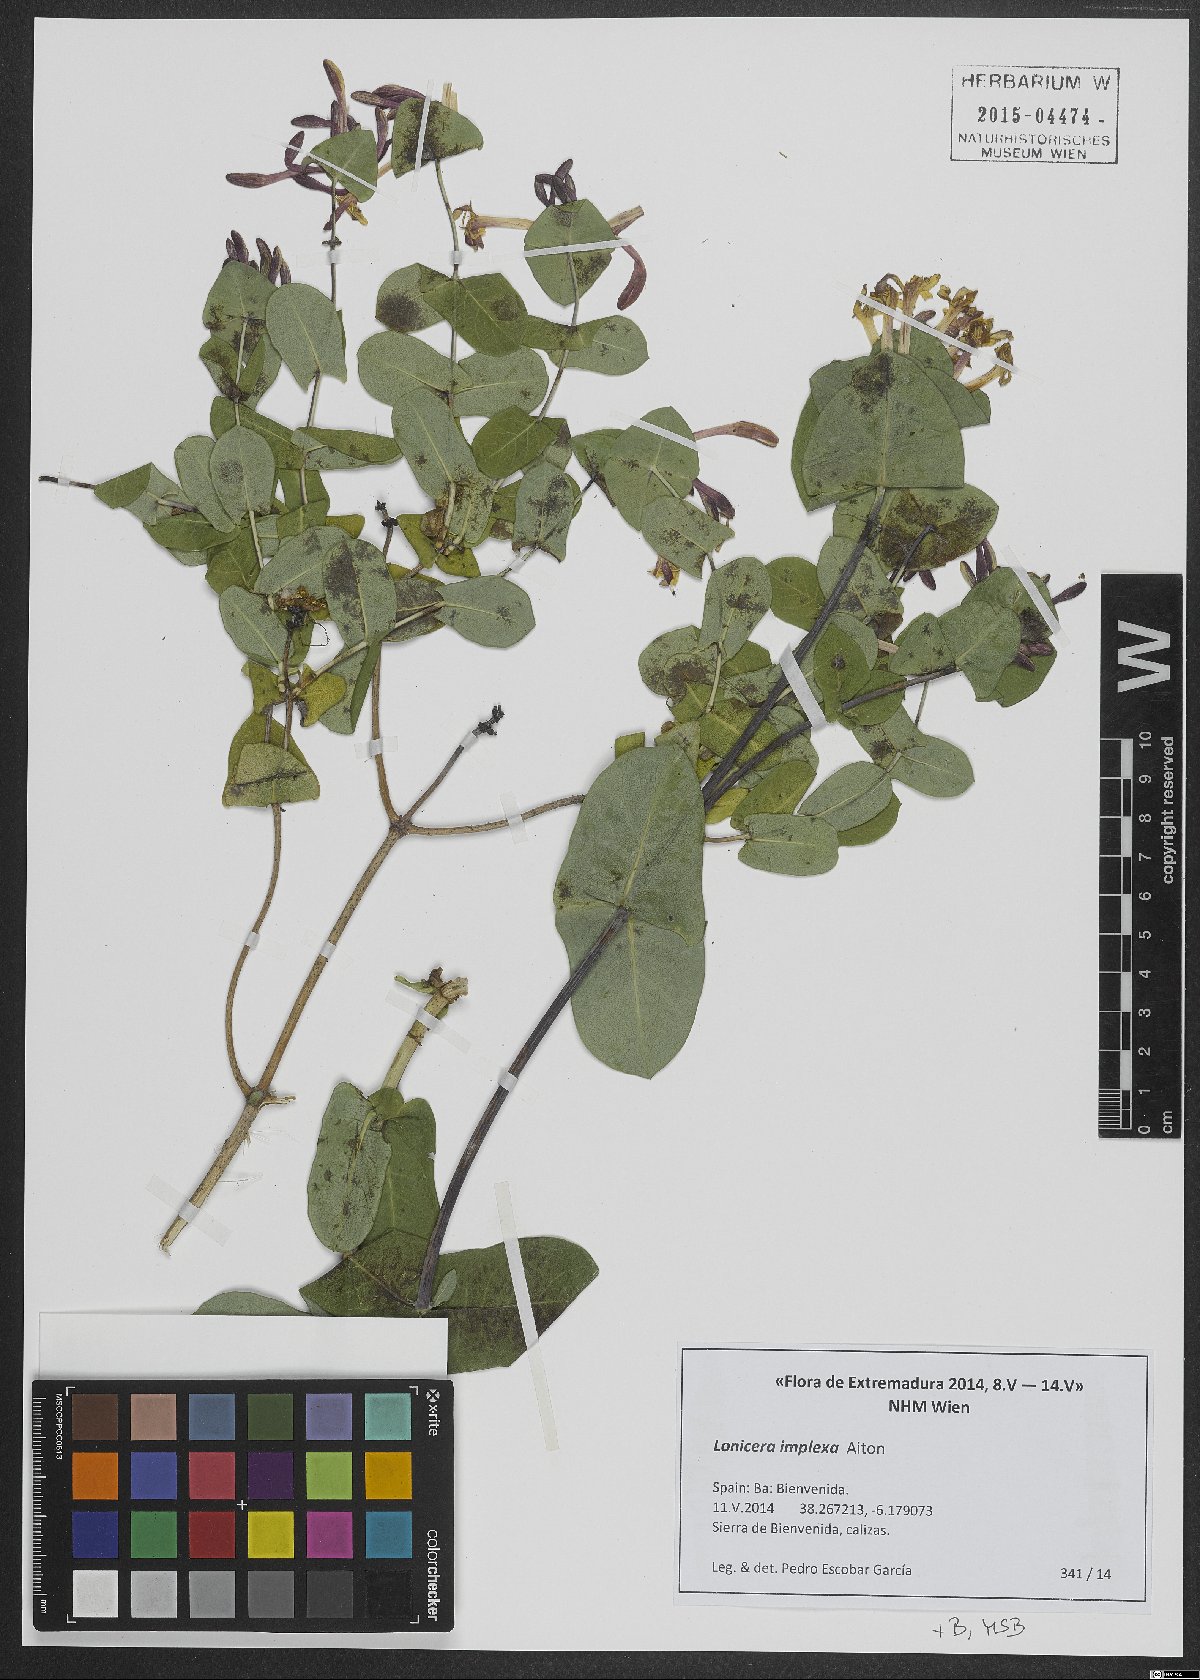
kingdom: Plantae
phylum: Tracheophyta
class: Magnoliopsida
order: Dipsacales
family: Caprifoliaceae
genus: Lonicera
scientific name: Lonicera implexa
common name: Minorca honeysuckle
